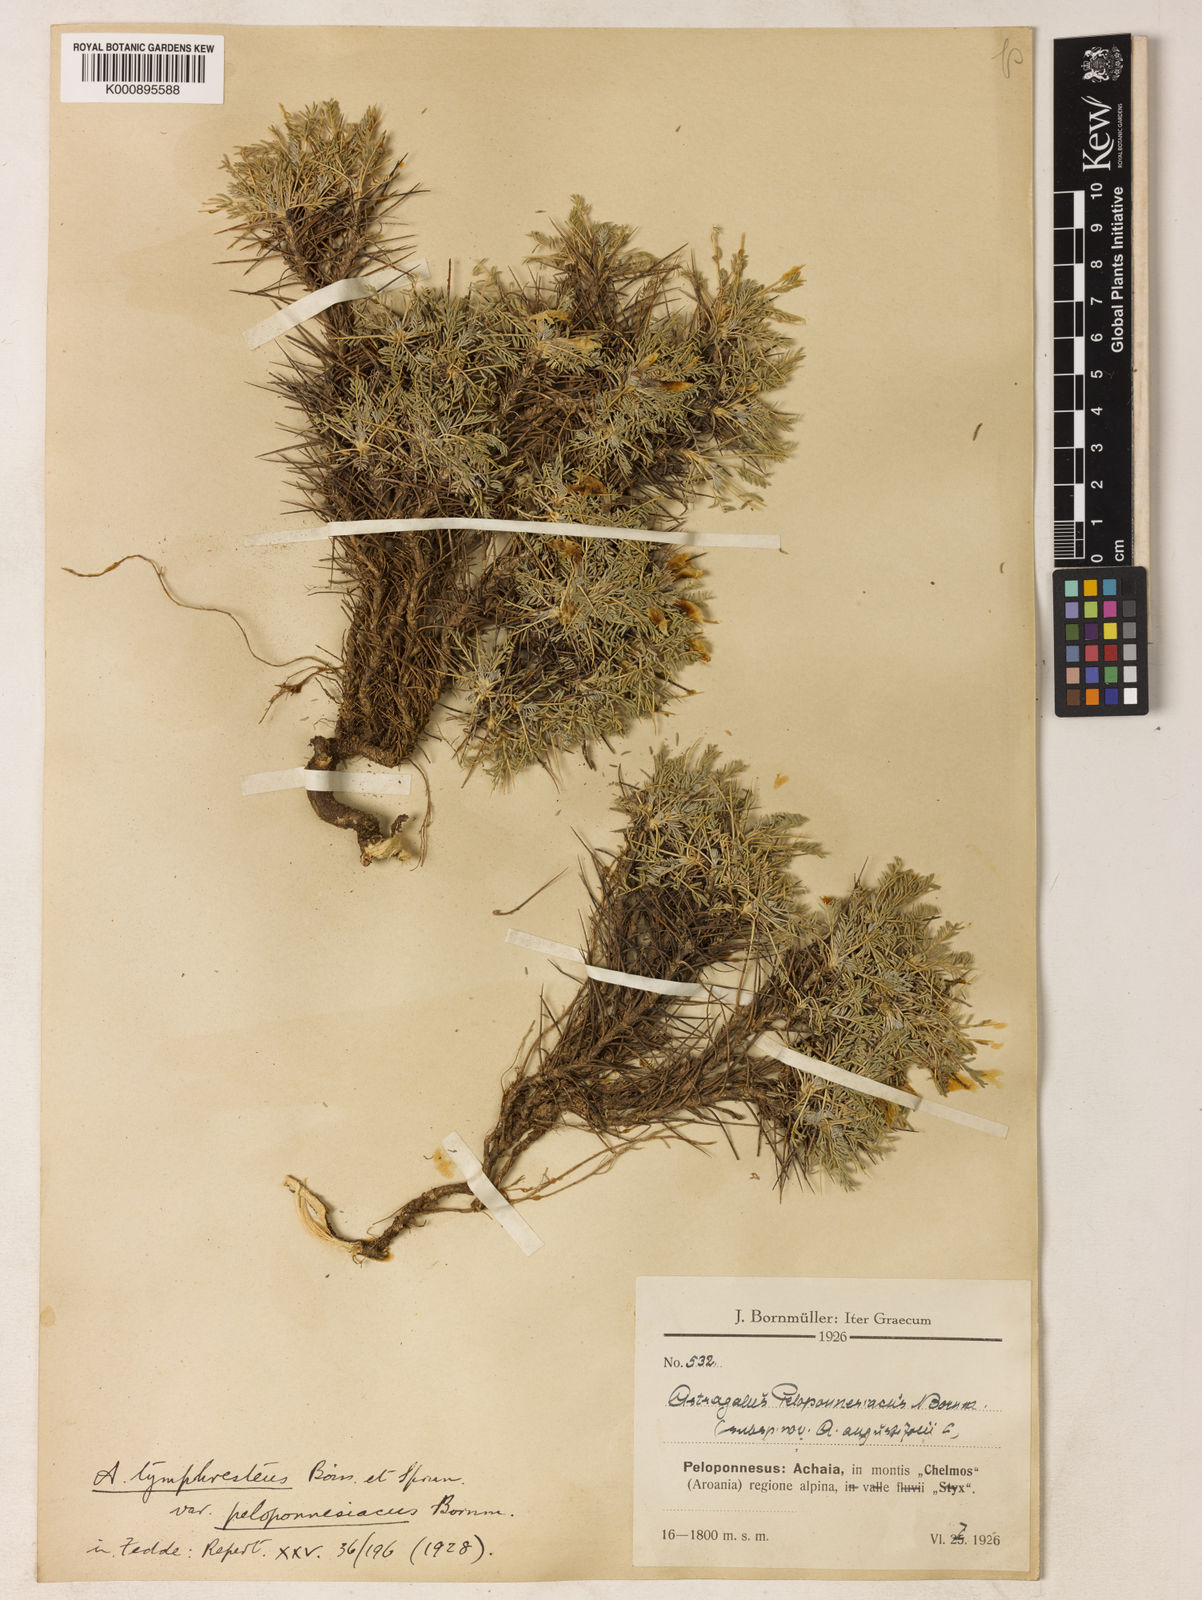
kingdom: Plantae
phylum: Tracheophyta
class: Magnoliopsida
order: Fabales
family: Fabaceae
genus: Astragalus
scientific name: Astragalus
